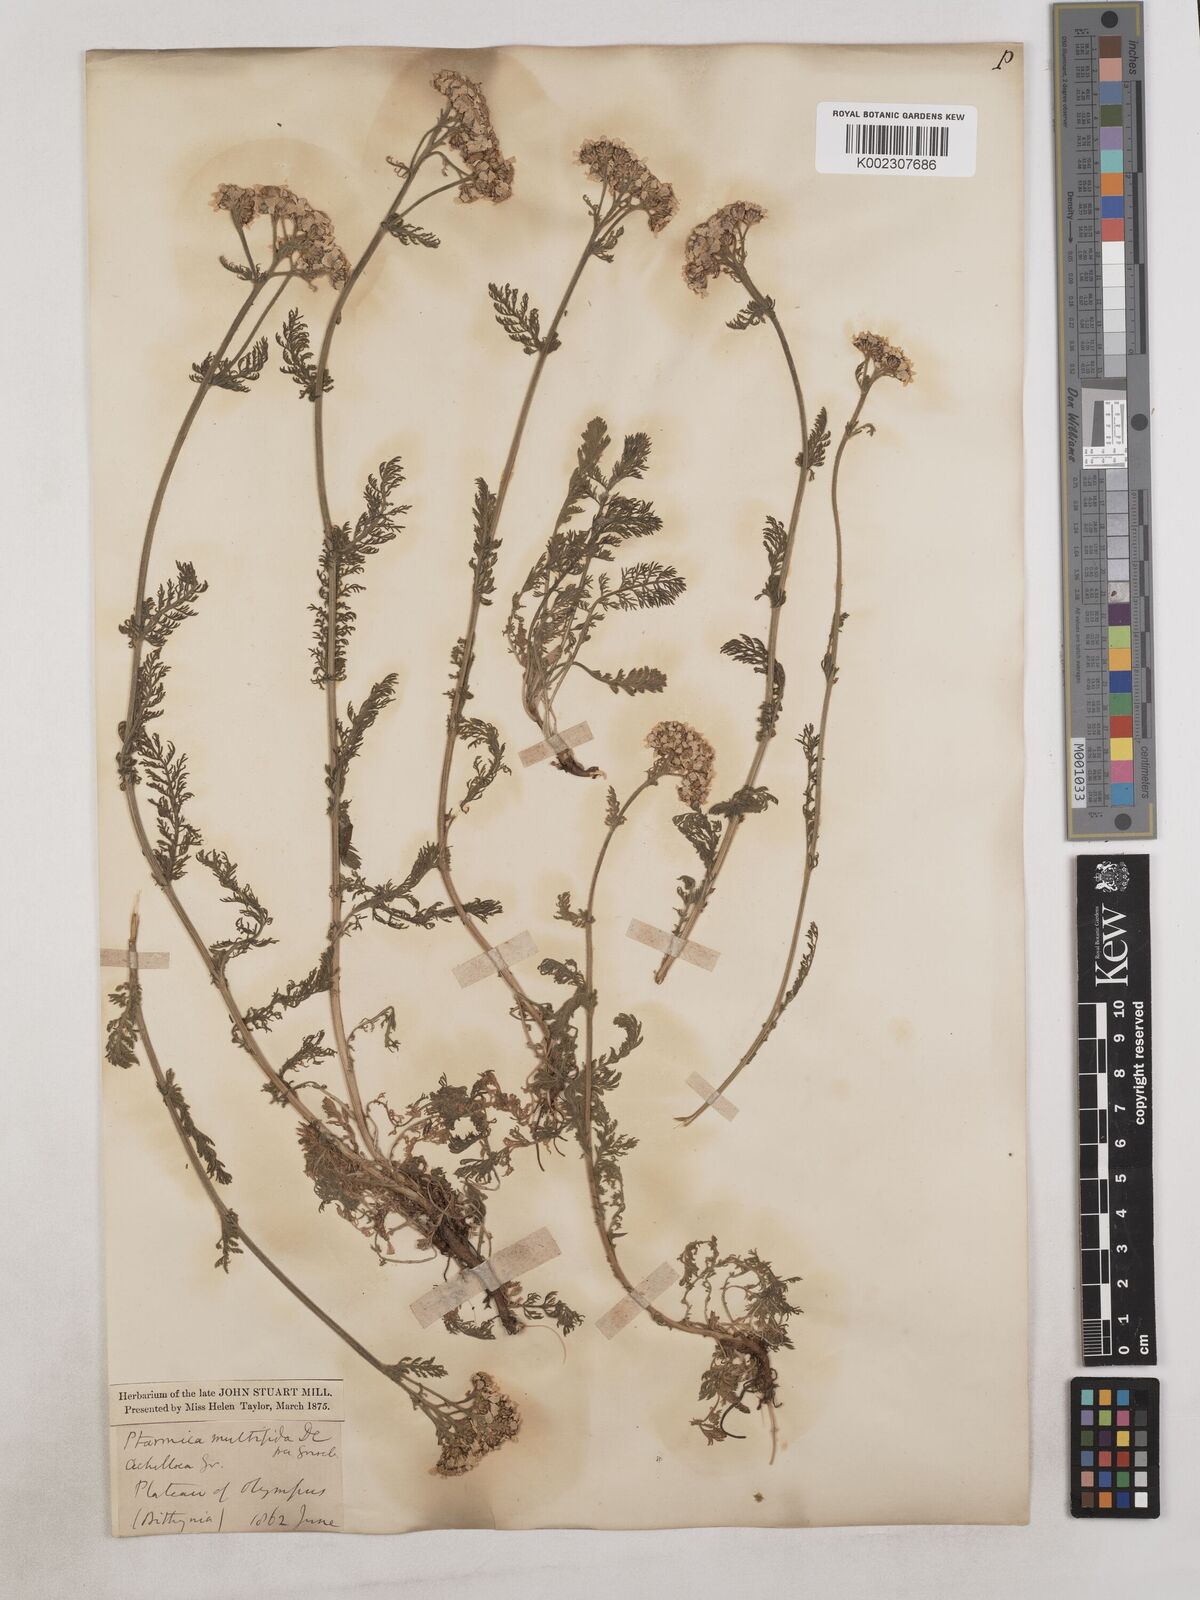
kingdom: Plantae
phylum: Tracheophyta
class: Magnoliopsida
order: Asterales
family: Asteraceae
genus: Achillea
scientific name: Achillea multifida
